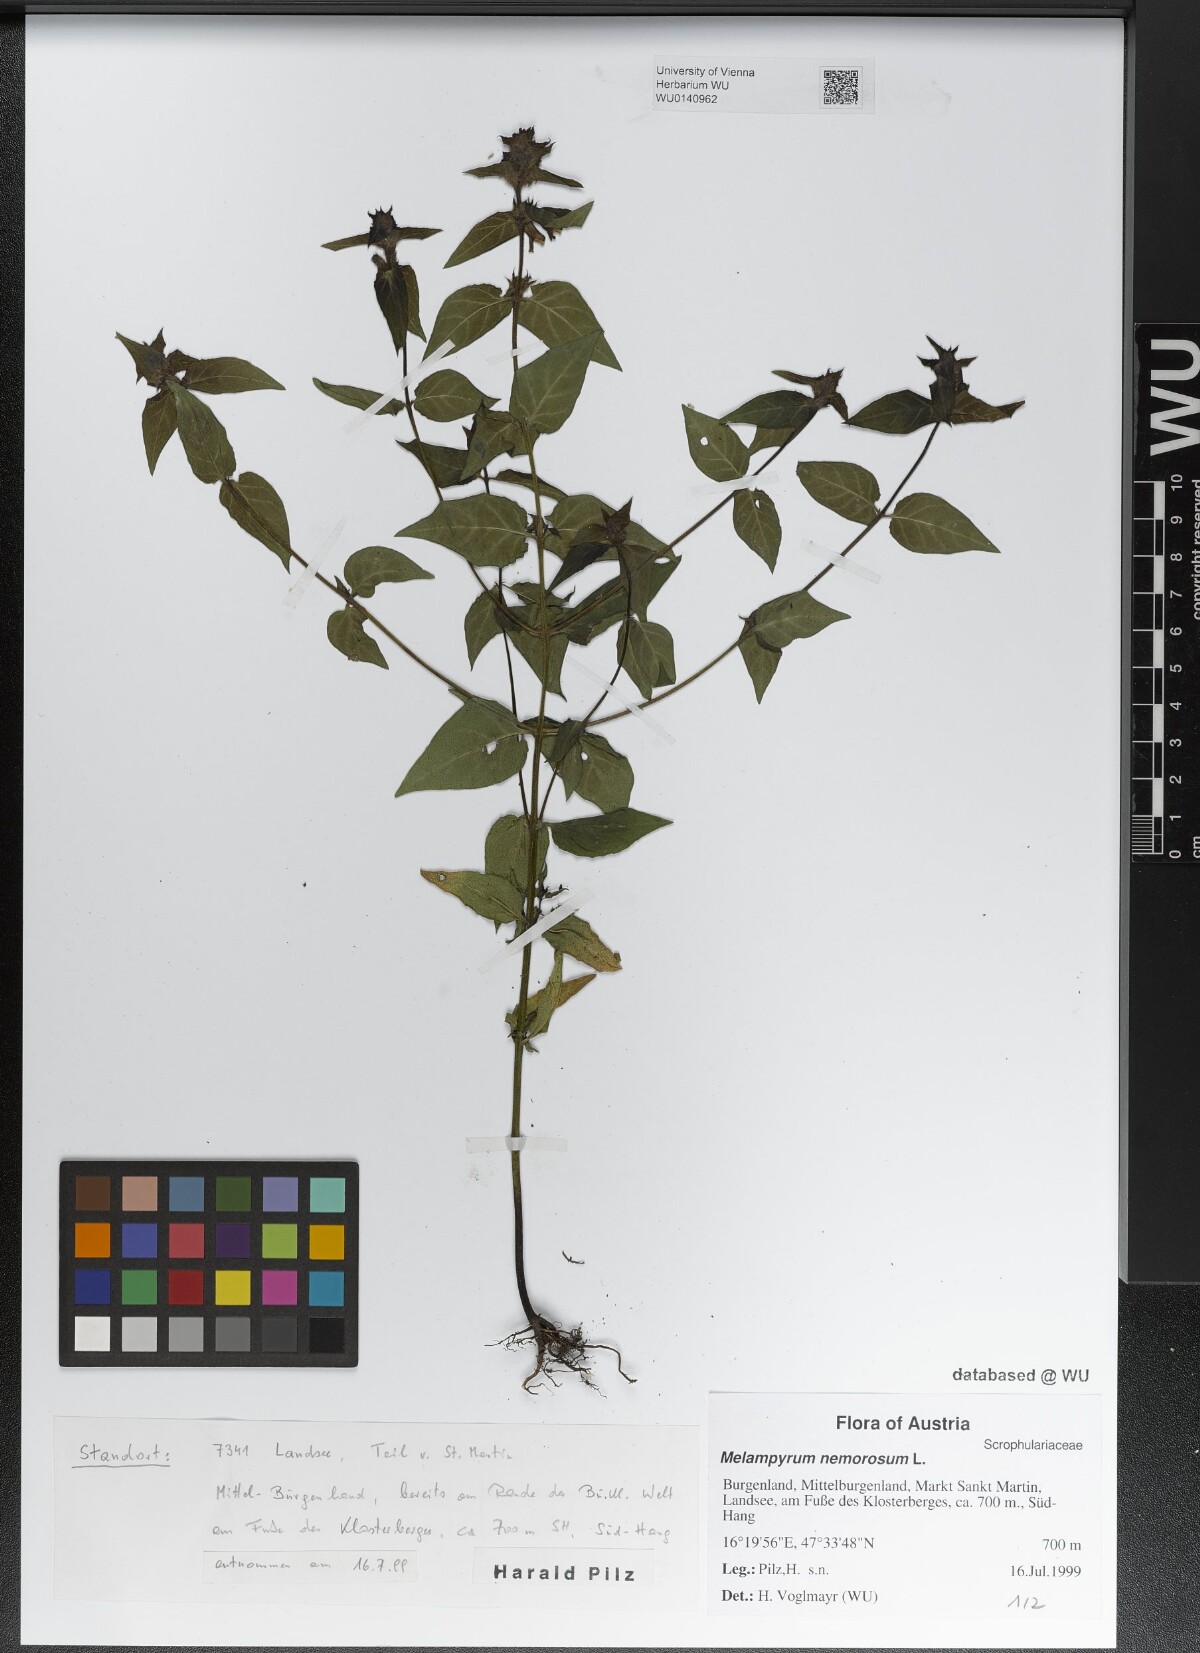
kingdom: Plantae
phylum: Tracheophyta
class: Magnoliopsida
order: Lamiales
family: Orobanchaceae
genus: Melampyrum
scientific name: Melampyrum nemorosum
